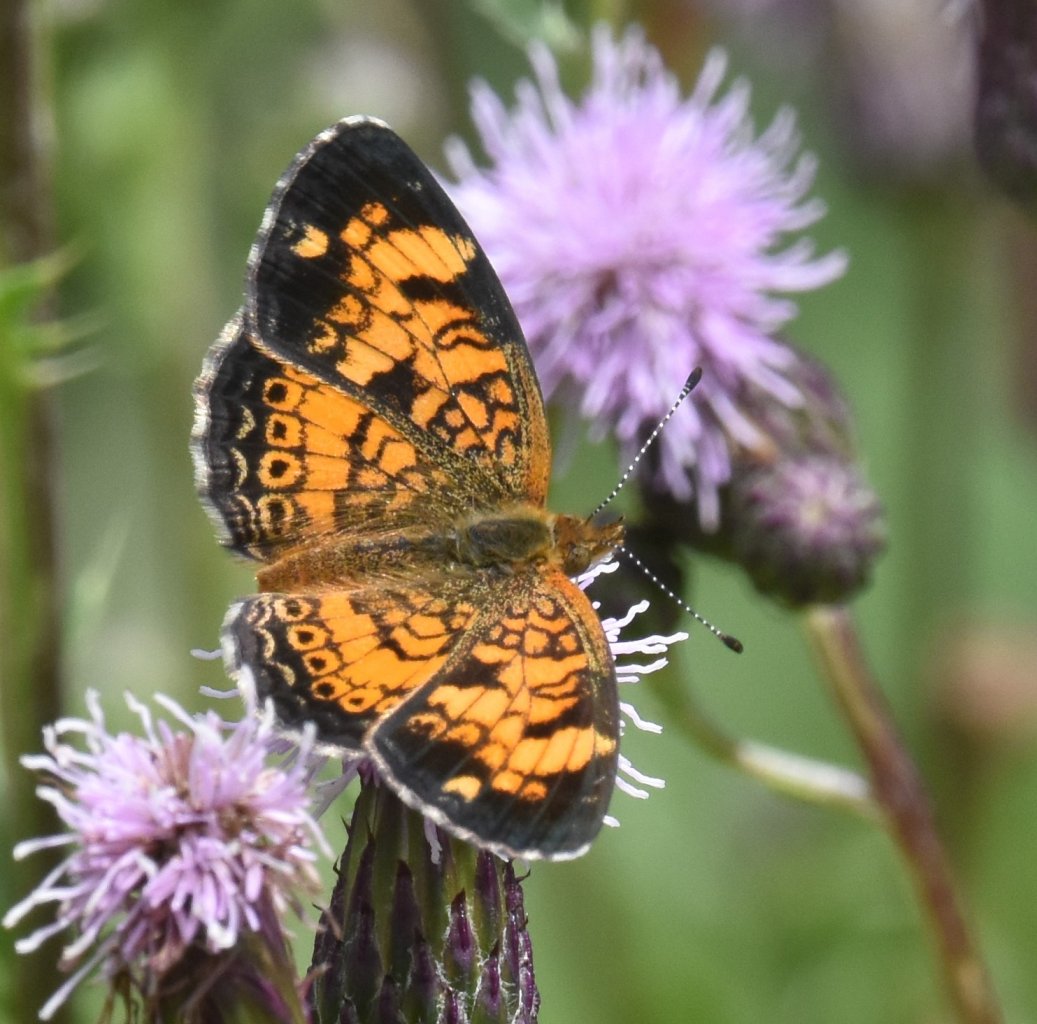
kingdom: Animalia
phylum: Arthropoda
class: Insecta
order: Lepidoptera
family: Nymphalidae
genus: Phyciodes
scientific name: Phyciodes tharos
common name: Pearl Crescent
